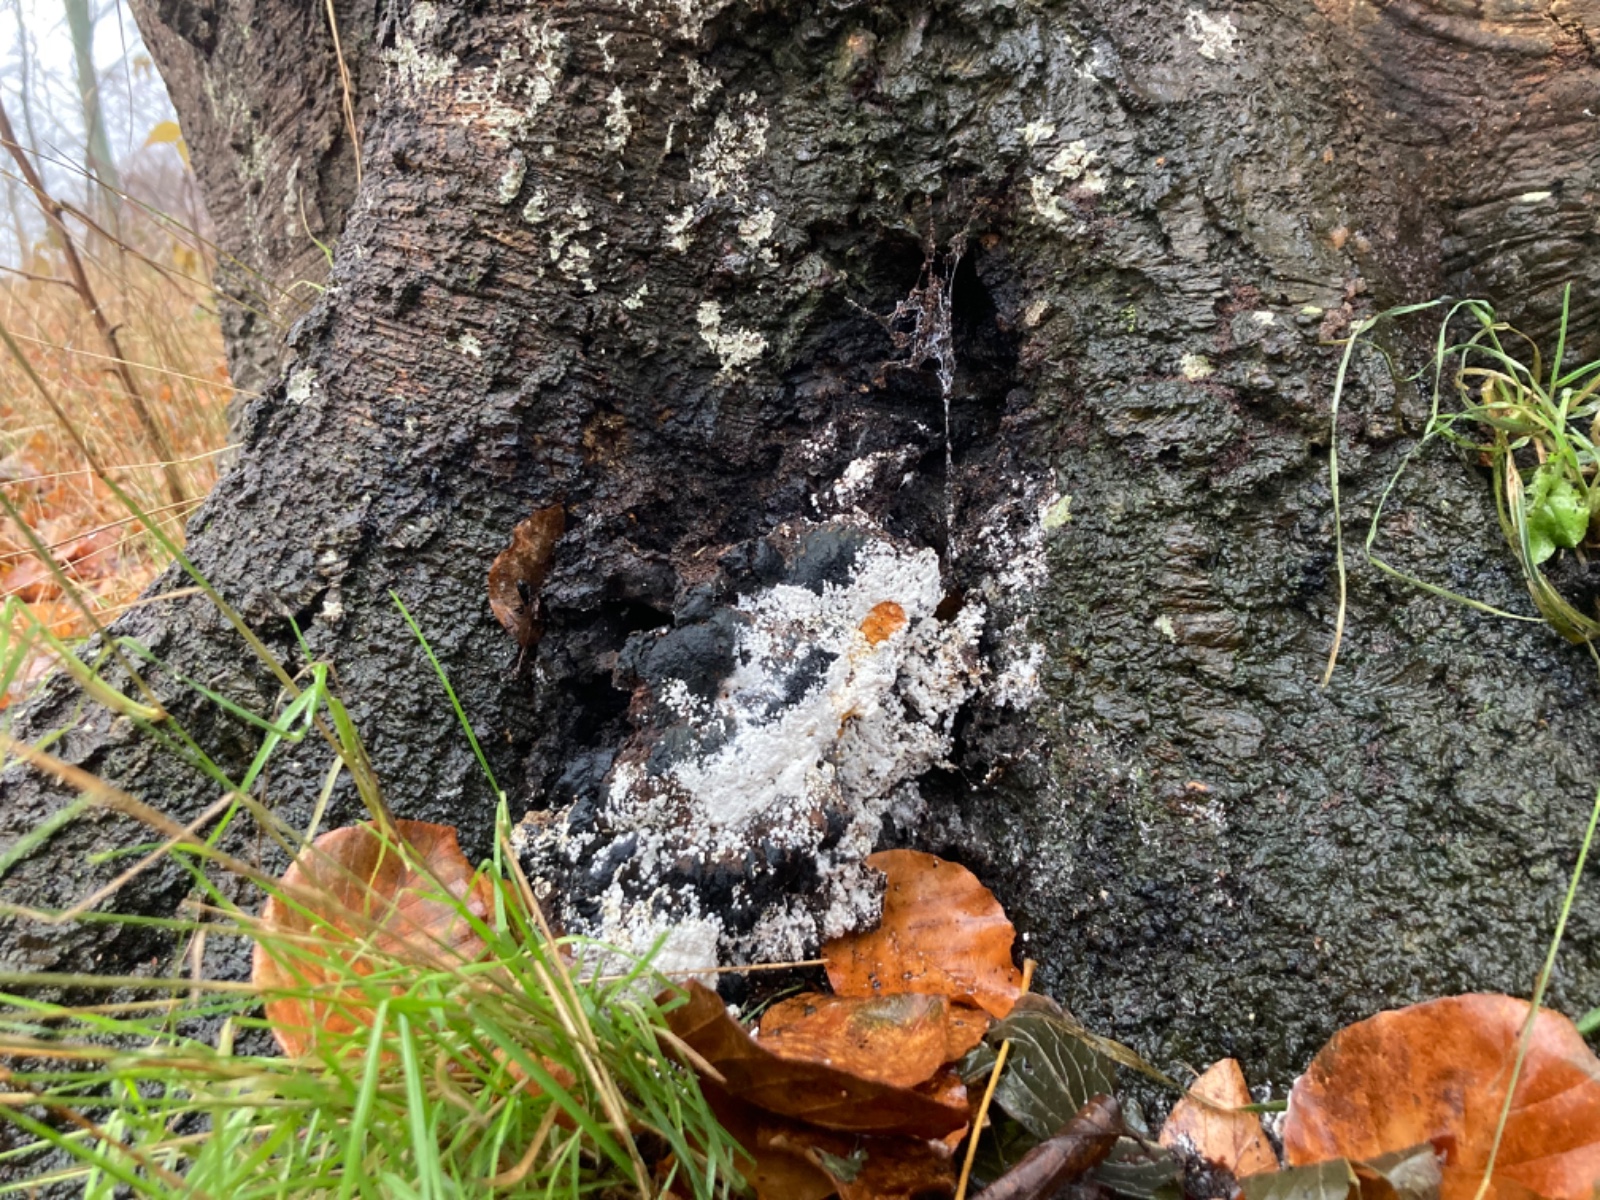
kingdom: Fungi
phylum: Ascomycota
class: Sordariomycetes
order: Hypocreales
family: Hypocreaceae
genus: Hypomyces
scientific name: Hypomyces aurantius
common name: almindelig snylteskorpe
